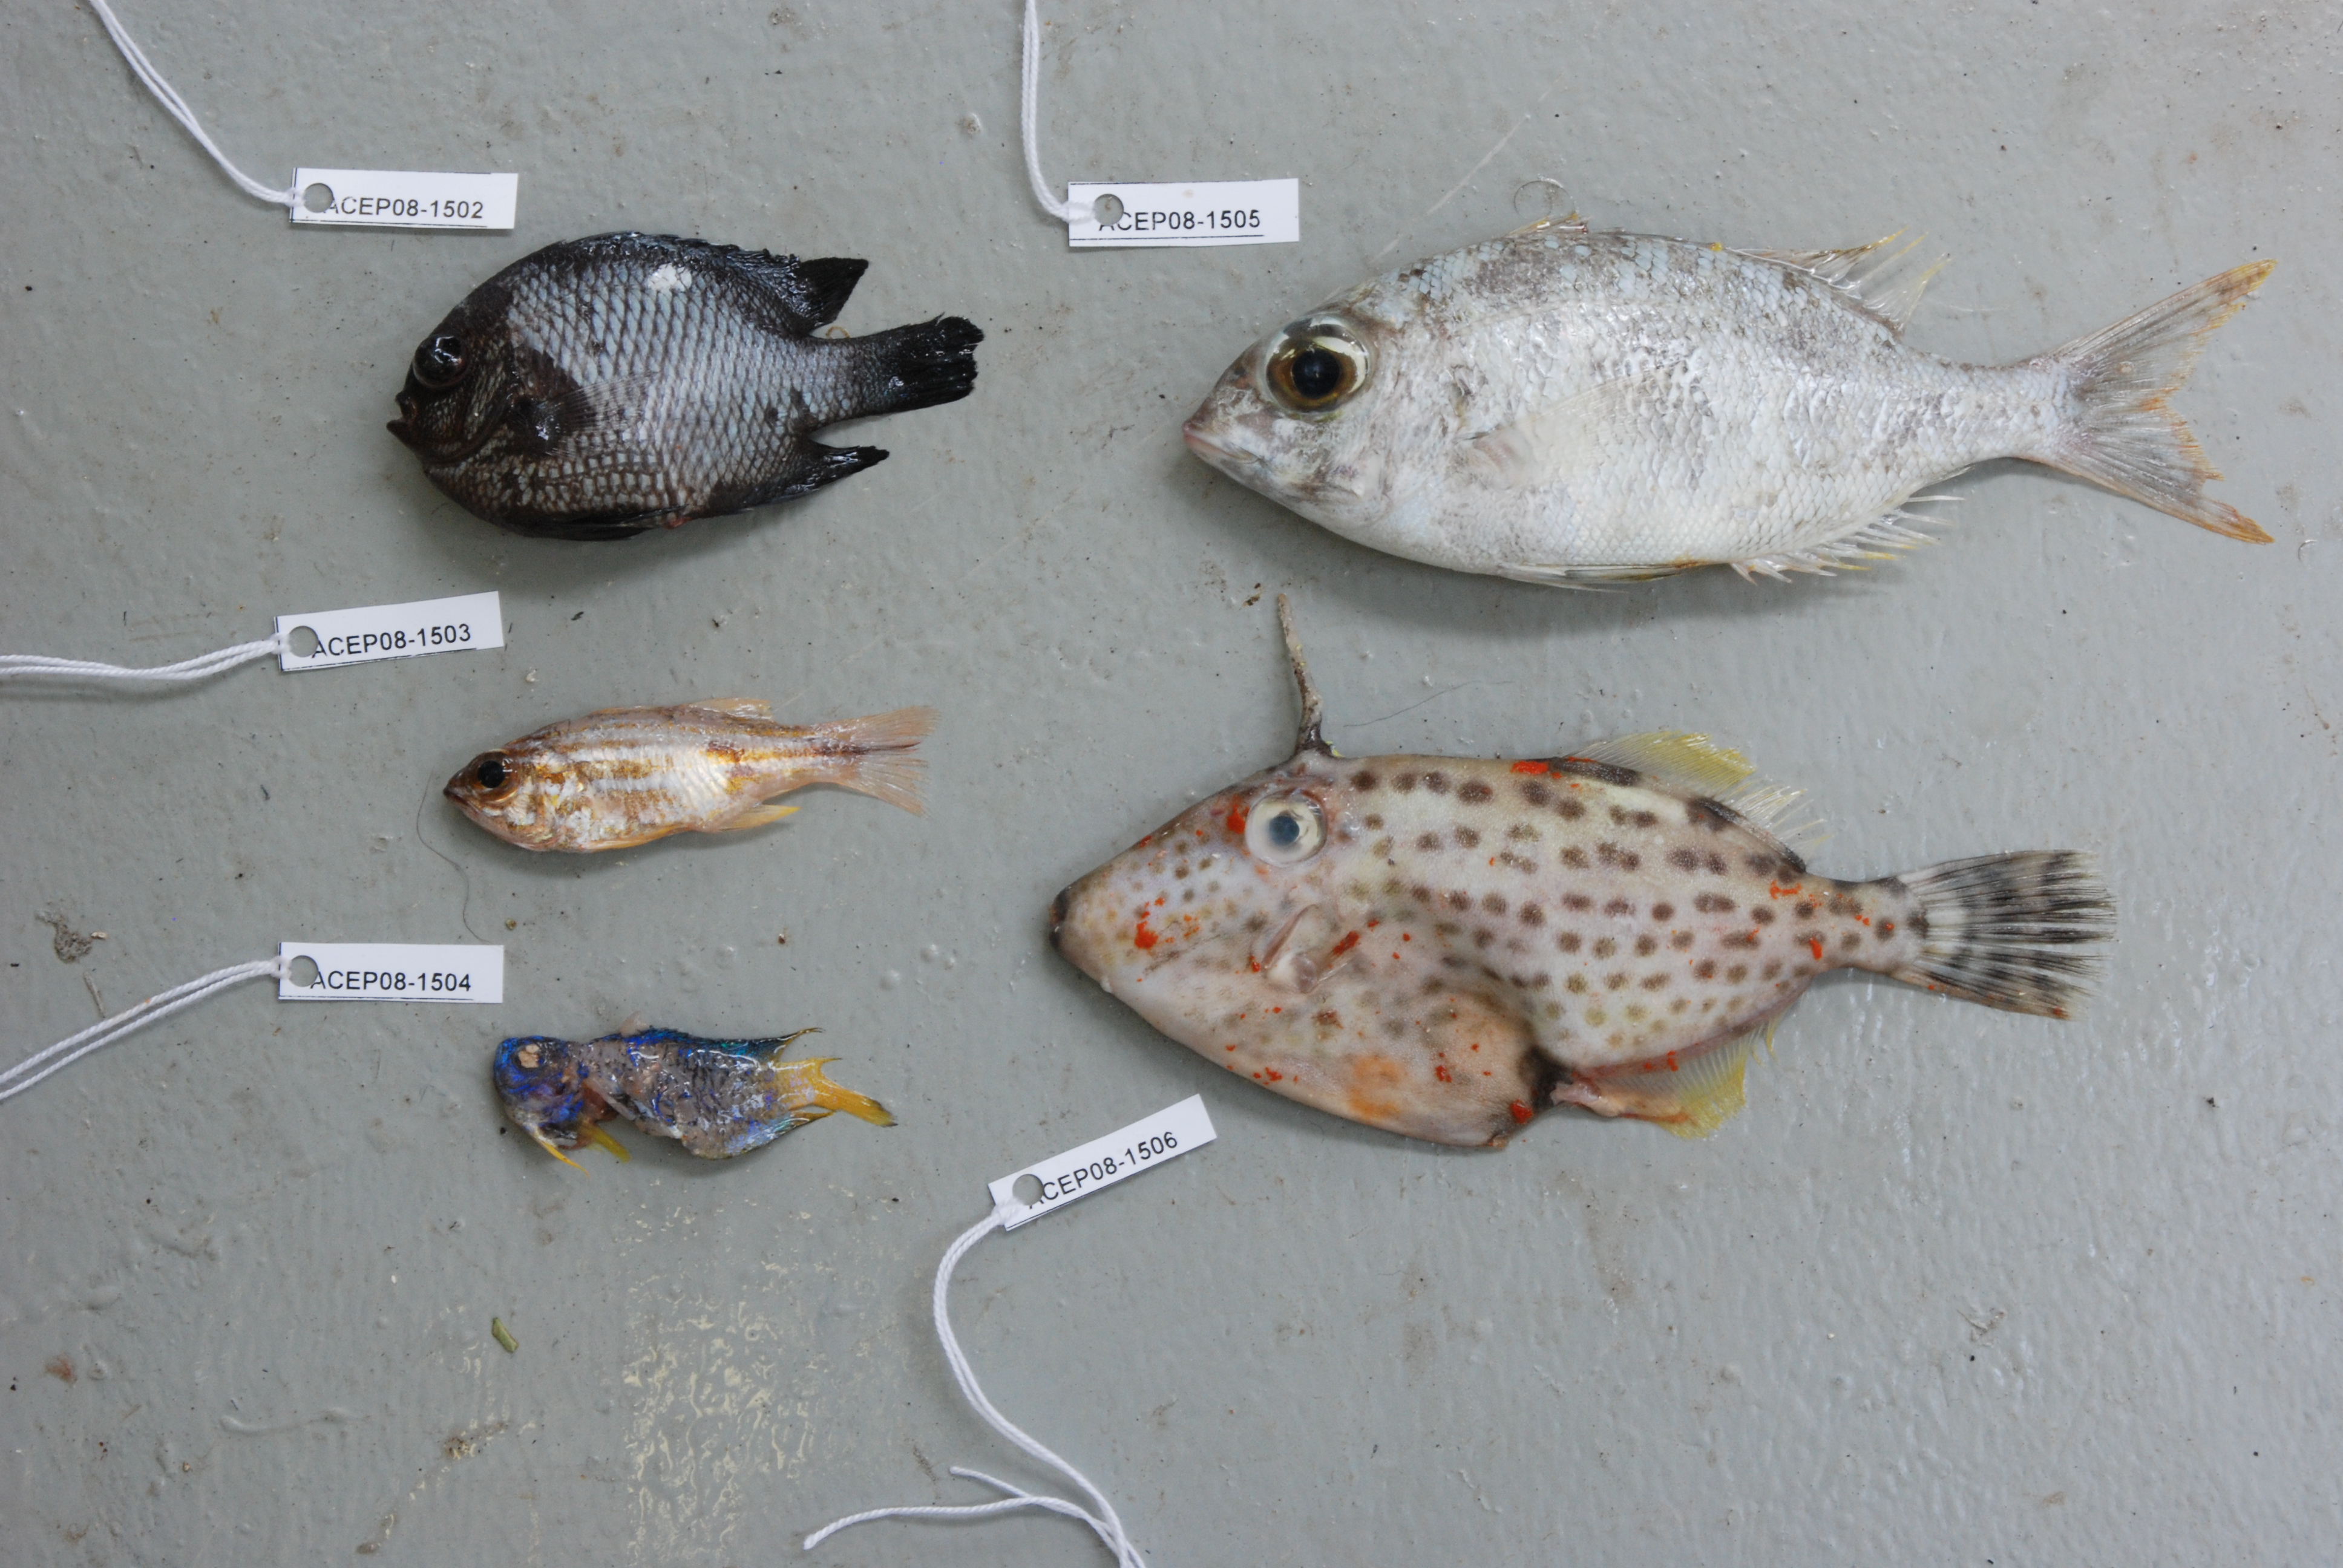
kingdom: Animalia
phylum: Chordata
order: Tetraodontiformes
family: Monacanthidae
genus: Thamnaconus
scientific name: Thamnaconus fajardoi
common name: Spotted filefish
